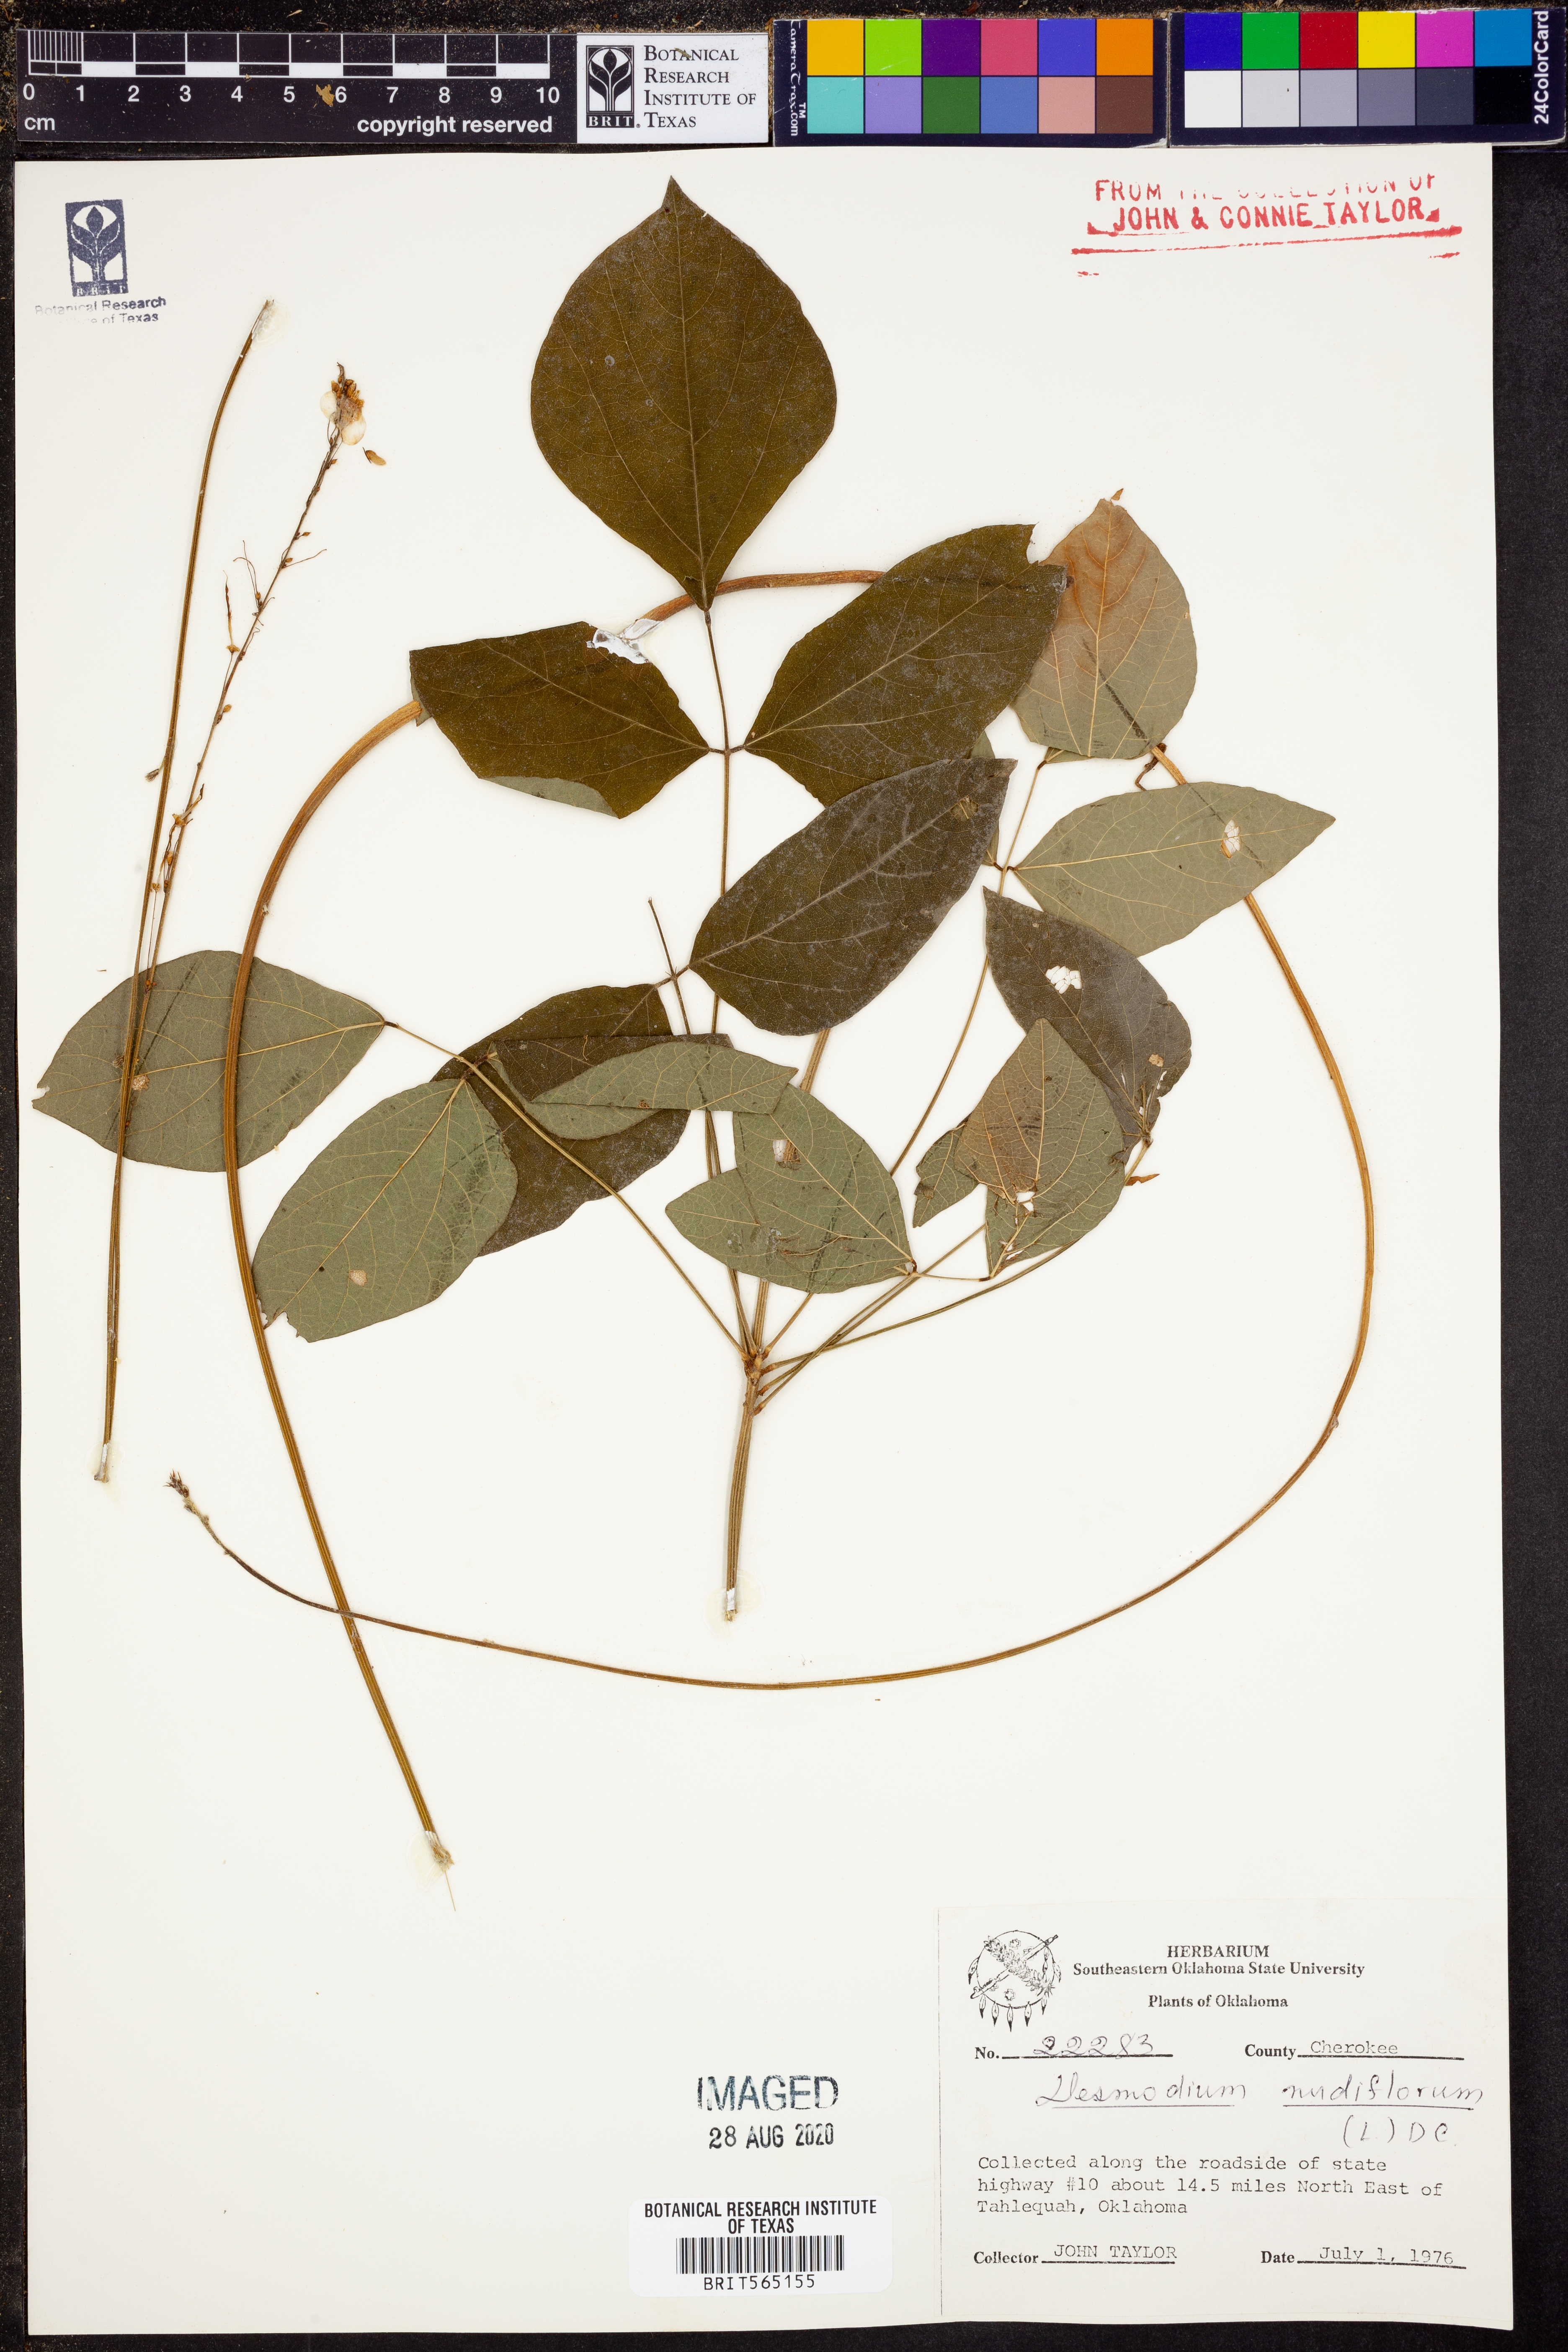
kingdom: Plantae
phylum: Tracheophyta
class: Magnoliopsida
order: Fabales
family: Fabaceae
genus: Hylodesmum
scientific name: Hylodesmum nudiflorum
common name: Bare-stemmed tick-trefoil
